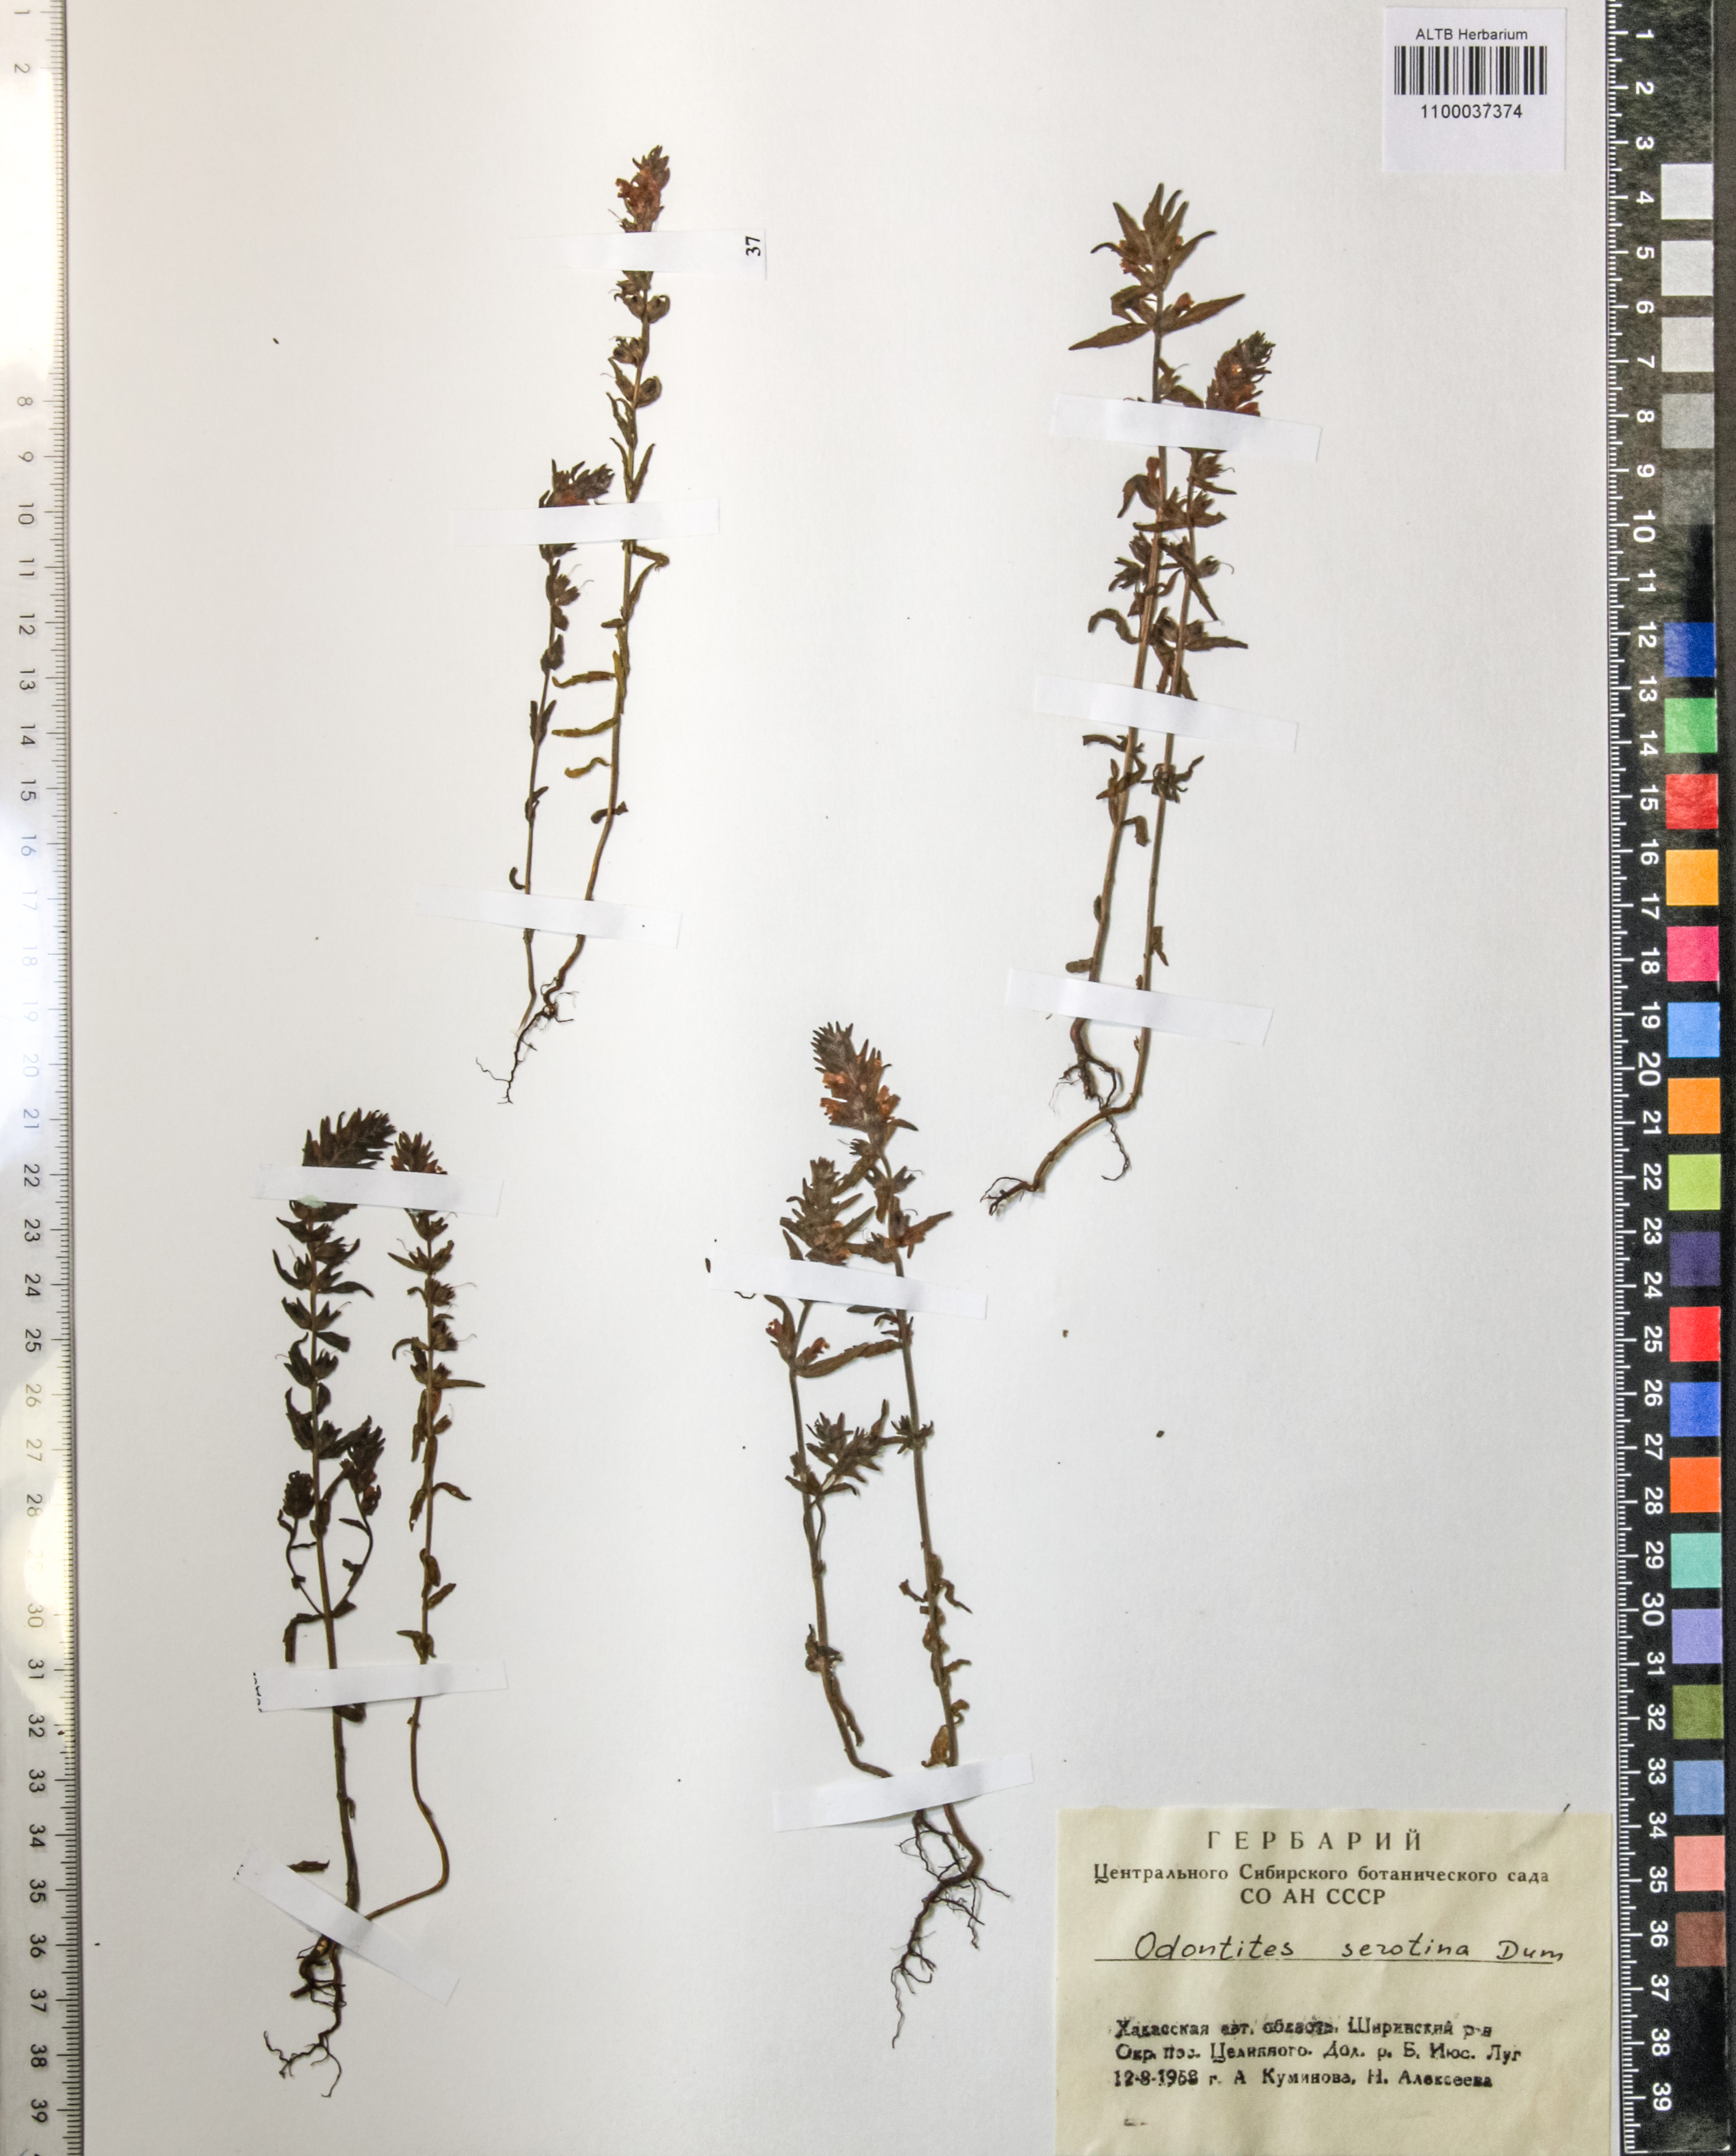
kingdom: Plantae
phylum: Tracheophyta
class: Magnoliopsida
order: Lamiales
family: Orobanchaceae
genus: Odontites
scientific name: Odontites vulgaris
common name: Broomrape
